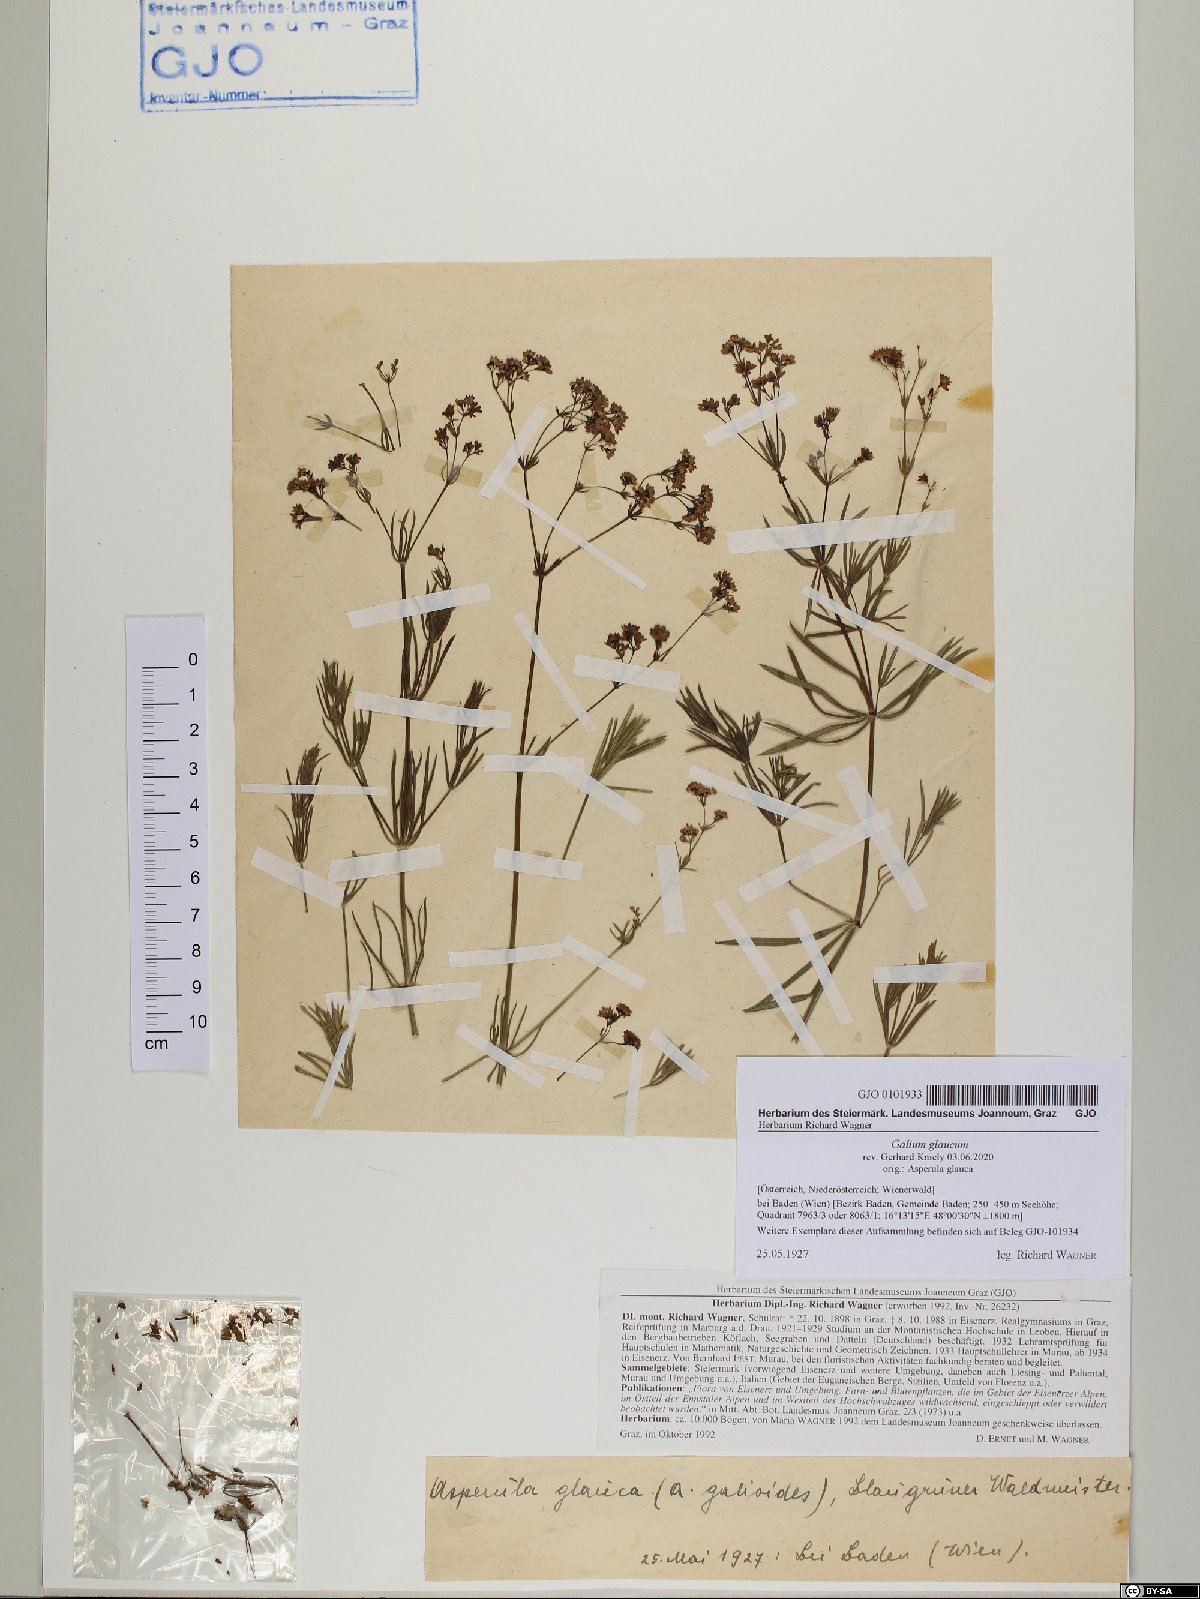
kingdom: Plantae
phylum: Tracheophyta
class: Magnoliopsida
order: Gentianales
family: Rubiaceae
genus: Galium
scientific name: Galium glaucum
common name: Waxy bedstraw
